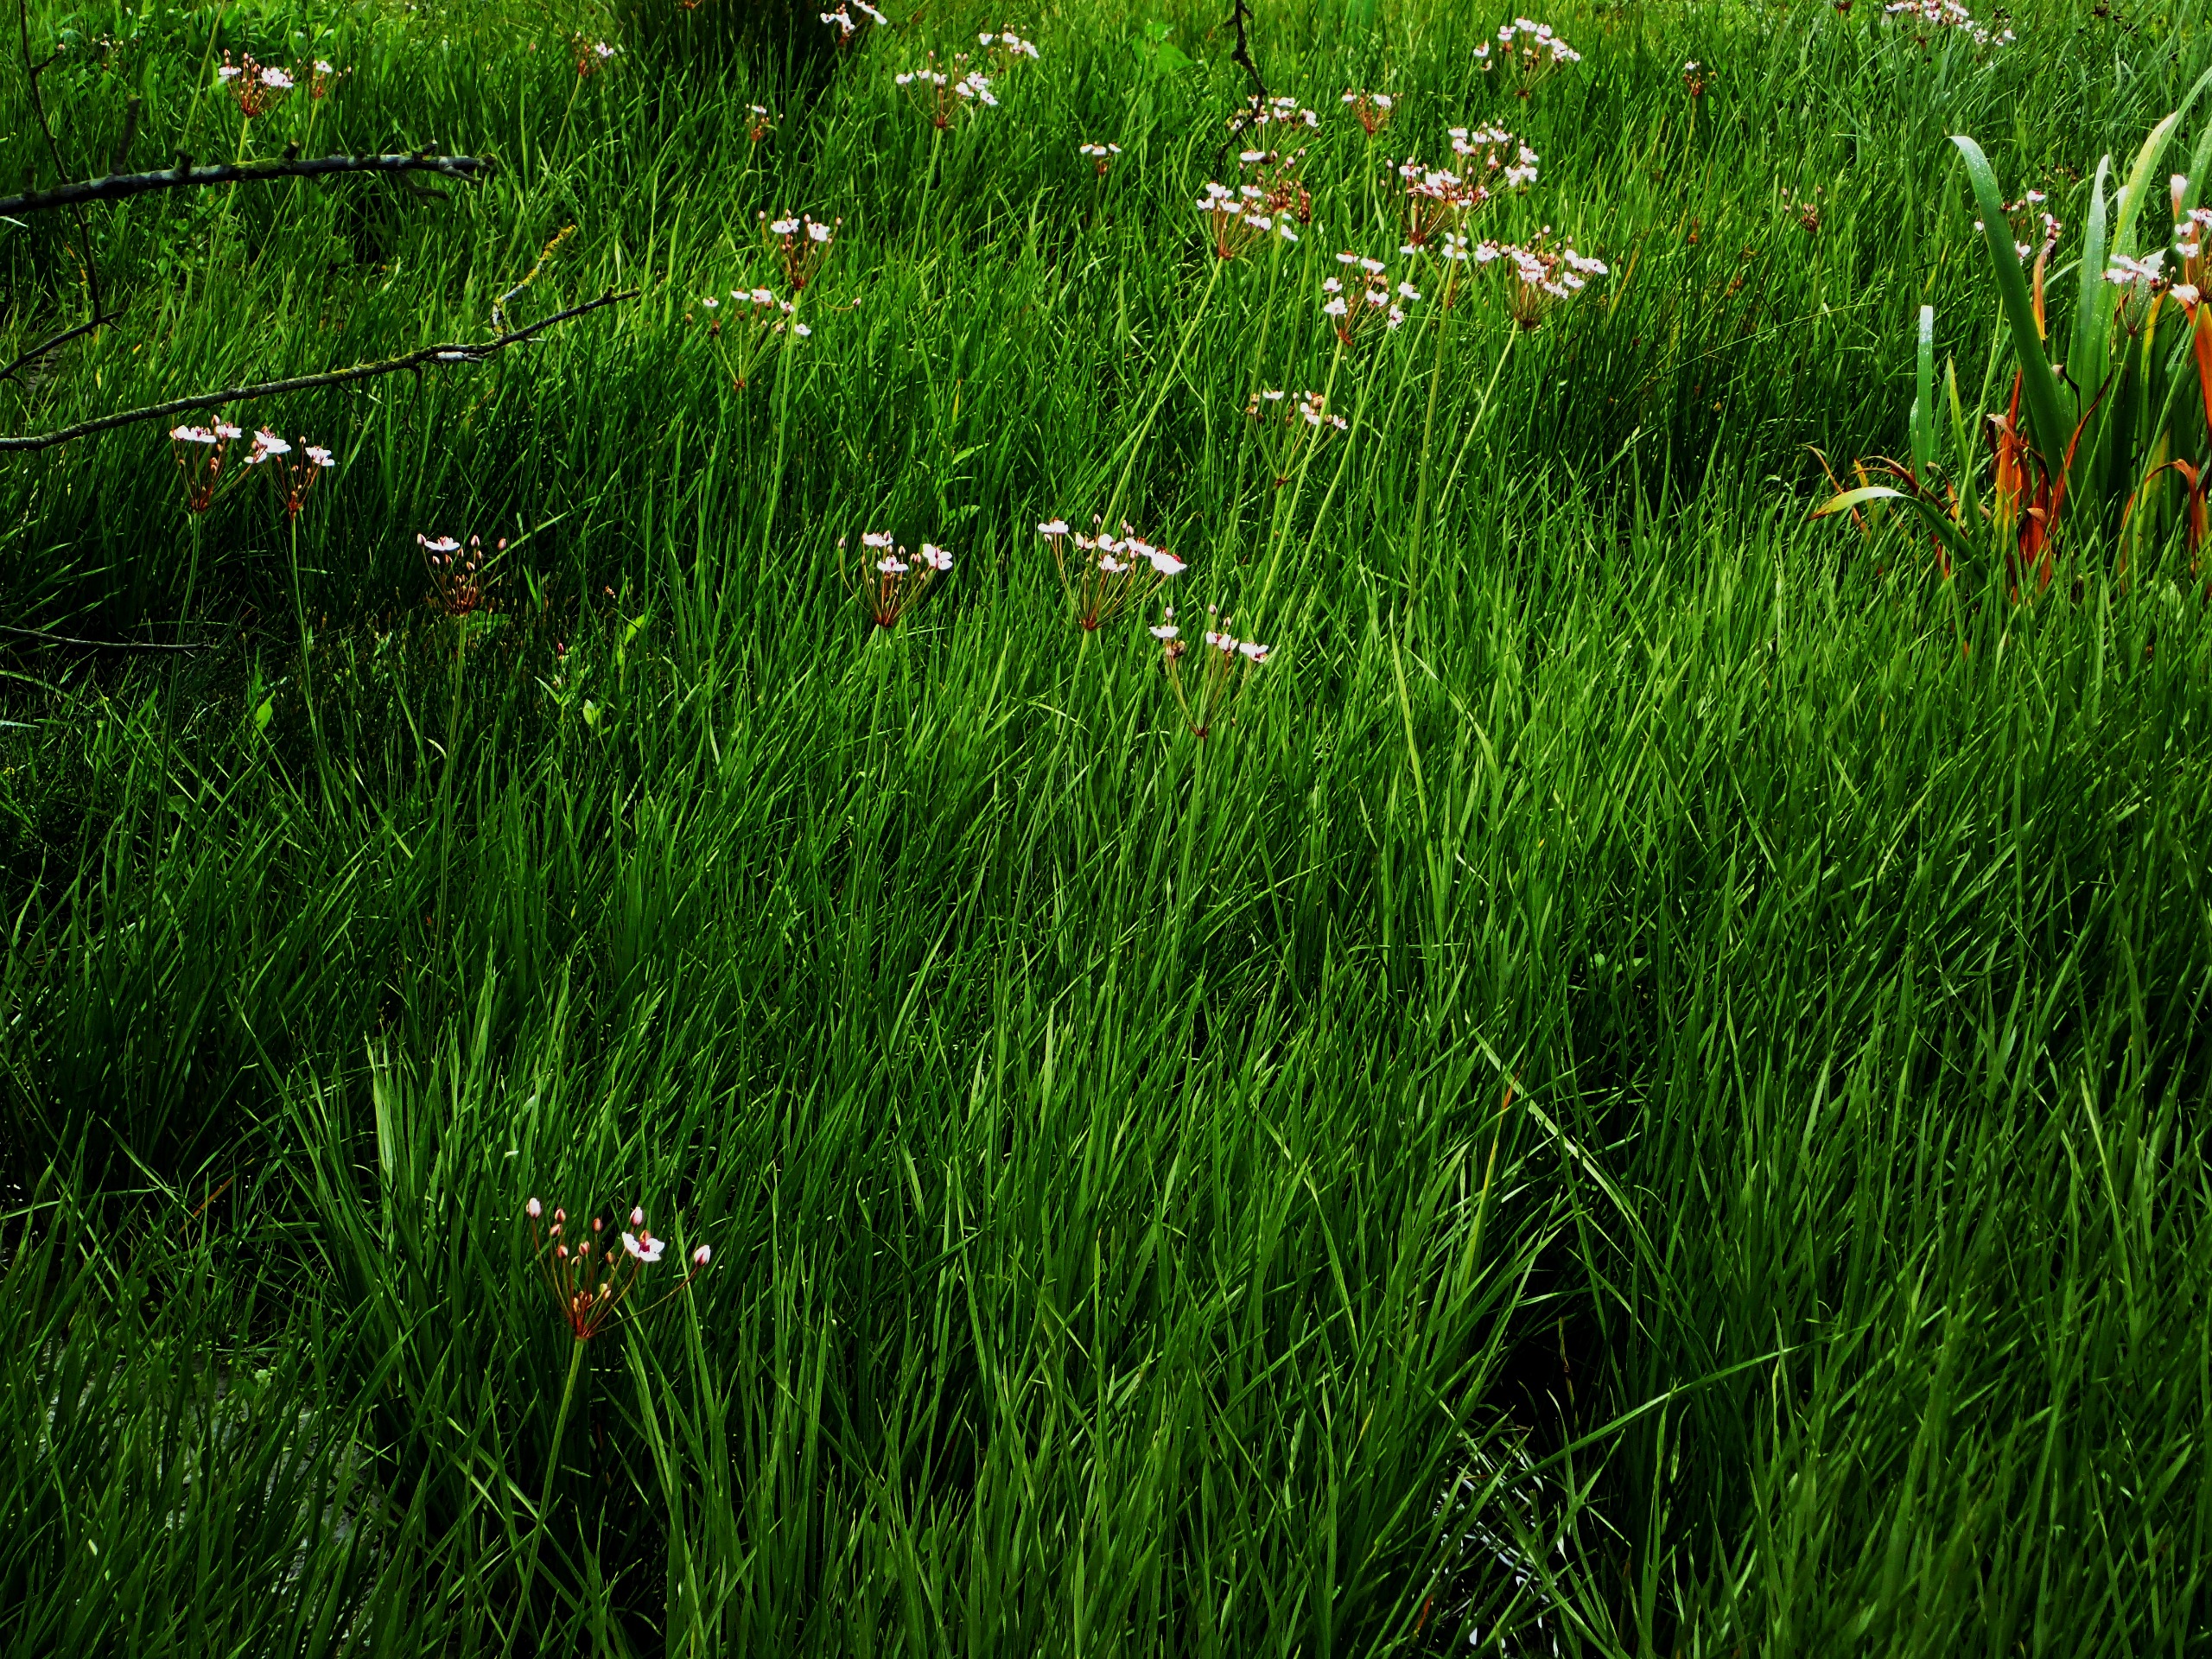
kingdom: Plantae
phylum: Tracheophyta
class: Liliopsida
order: Alismatales
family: Butomaceae
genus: Butomus
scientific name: Butomus umbellatus
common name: Brudelys
